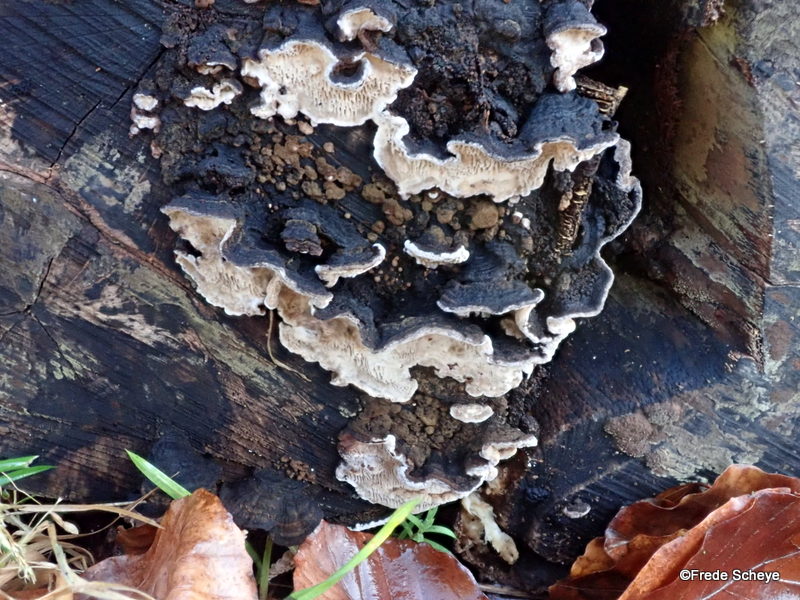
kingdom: Fungi
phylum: Basidiomycota
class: Agaricomycetes
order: Polyporales
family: Polyporaceae
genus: Podofomes
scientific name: Podofomes mollis
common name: blød begporesvamp
